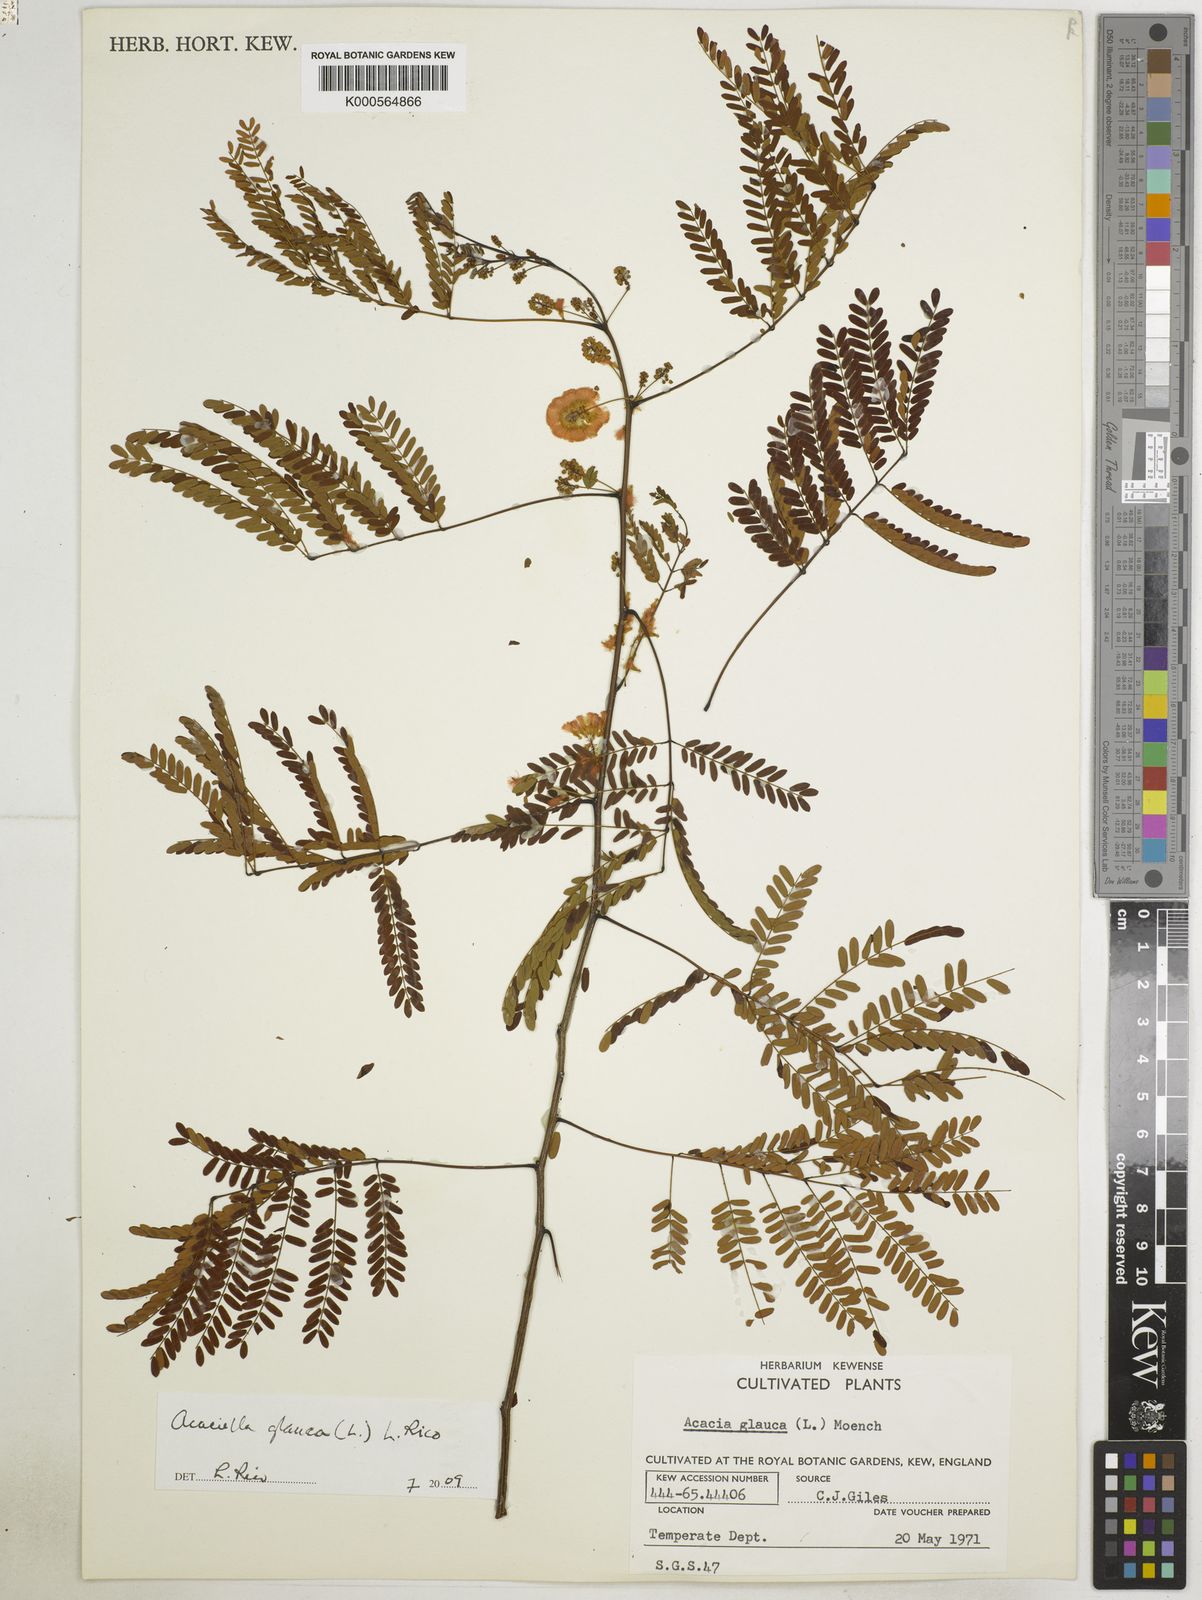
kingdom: Plantae
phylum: Tracheophyta
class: Magnoliopsida
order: Fabales
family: Fabaceae
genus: Acaciella
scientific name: Acaciella glauca
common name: Redwood
